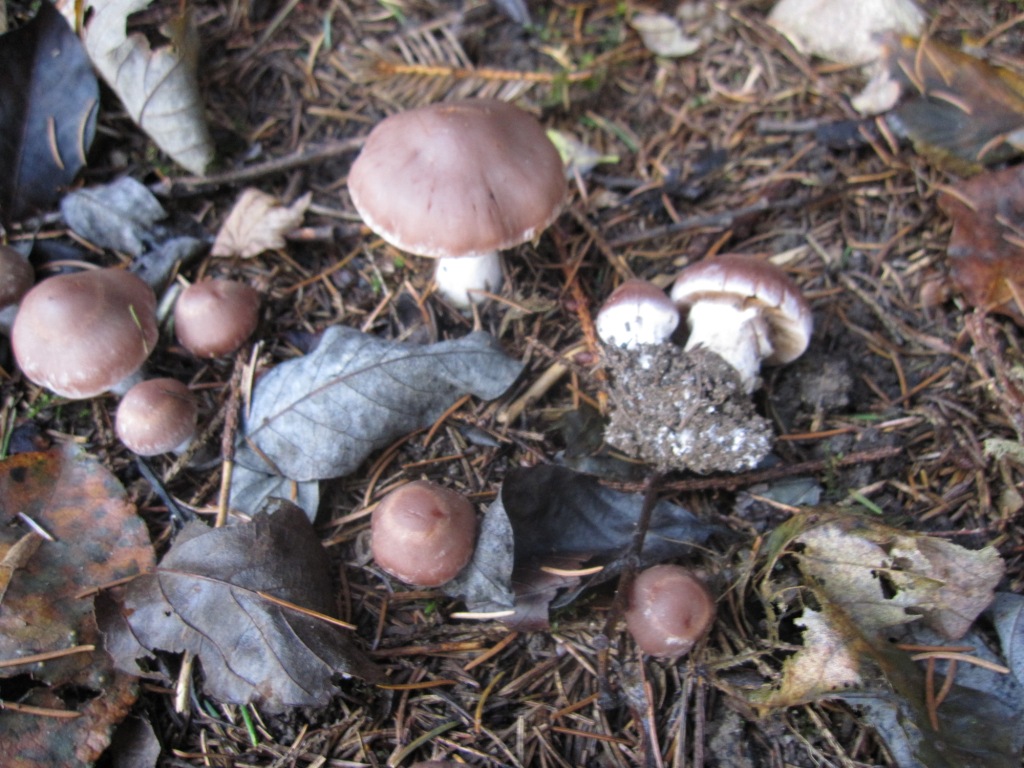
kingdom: Fungi
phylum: Basidiomycota
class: Agaricomycetes
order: Agaricales
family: Cortinariaceae
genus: Cortinarius
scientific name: Cortinarius saturninus
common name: brunviolet slørhat
